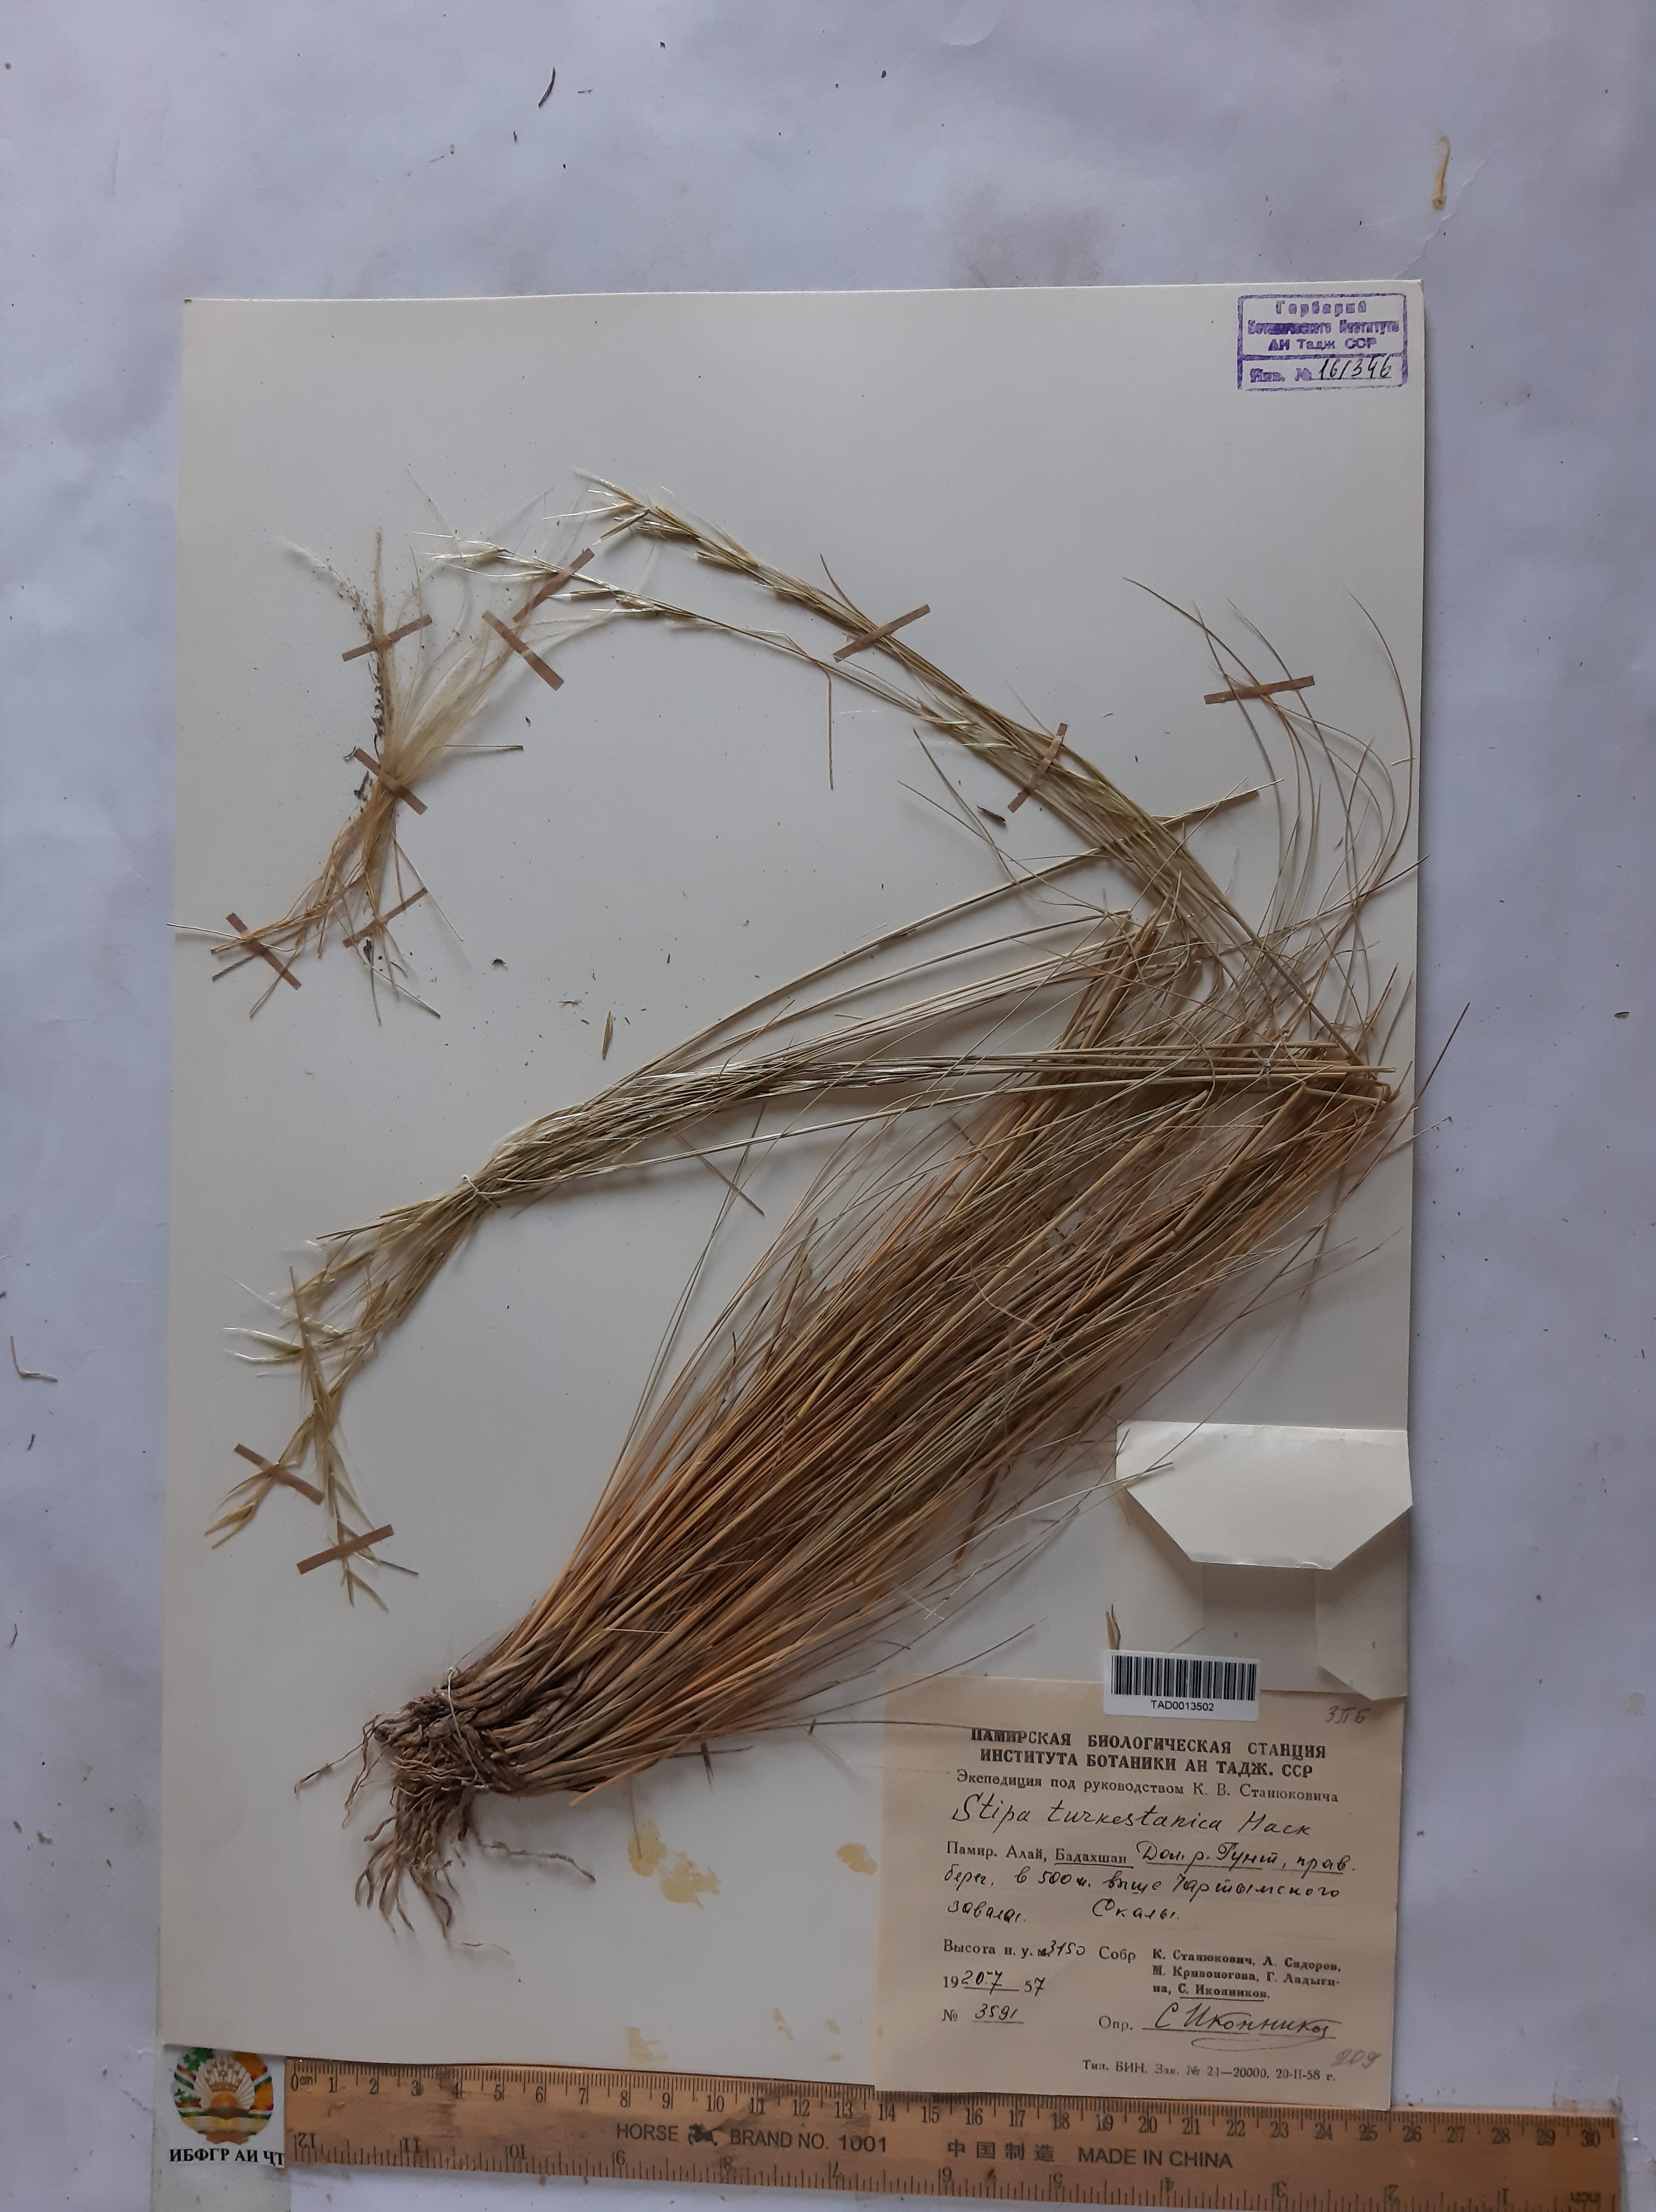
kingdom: Plantae
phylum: Tracheophyta
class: Liliopsida
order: Poales
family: Poaceae
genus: Stipa
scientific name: Stipa turkestanica
